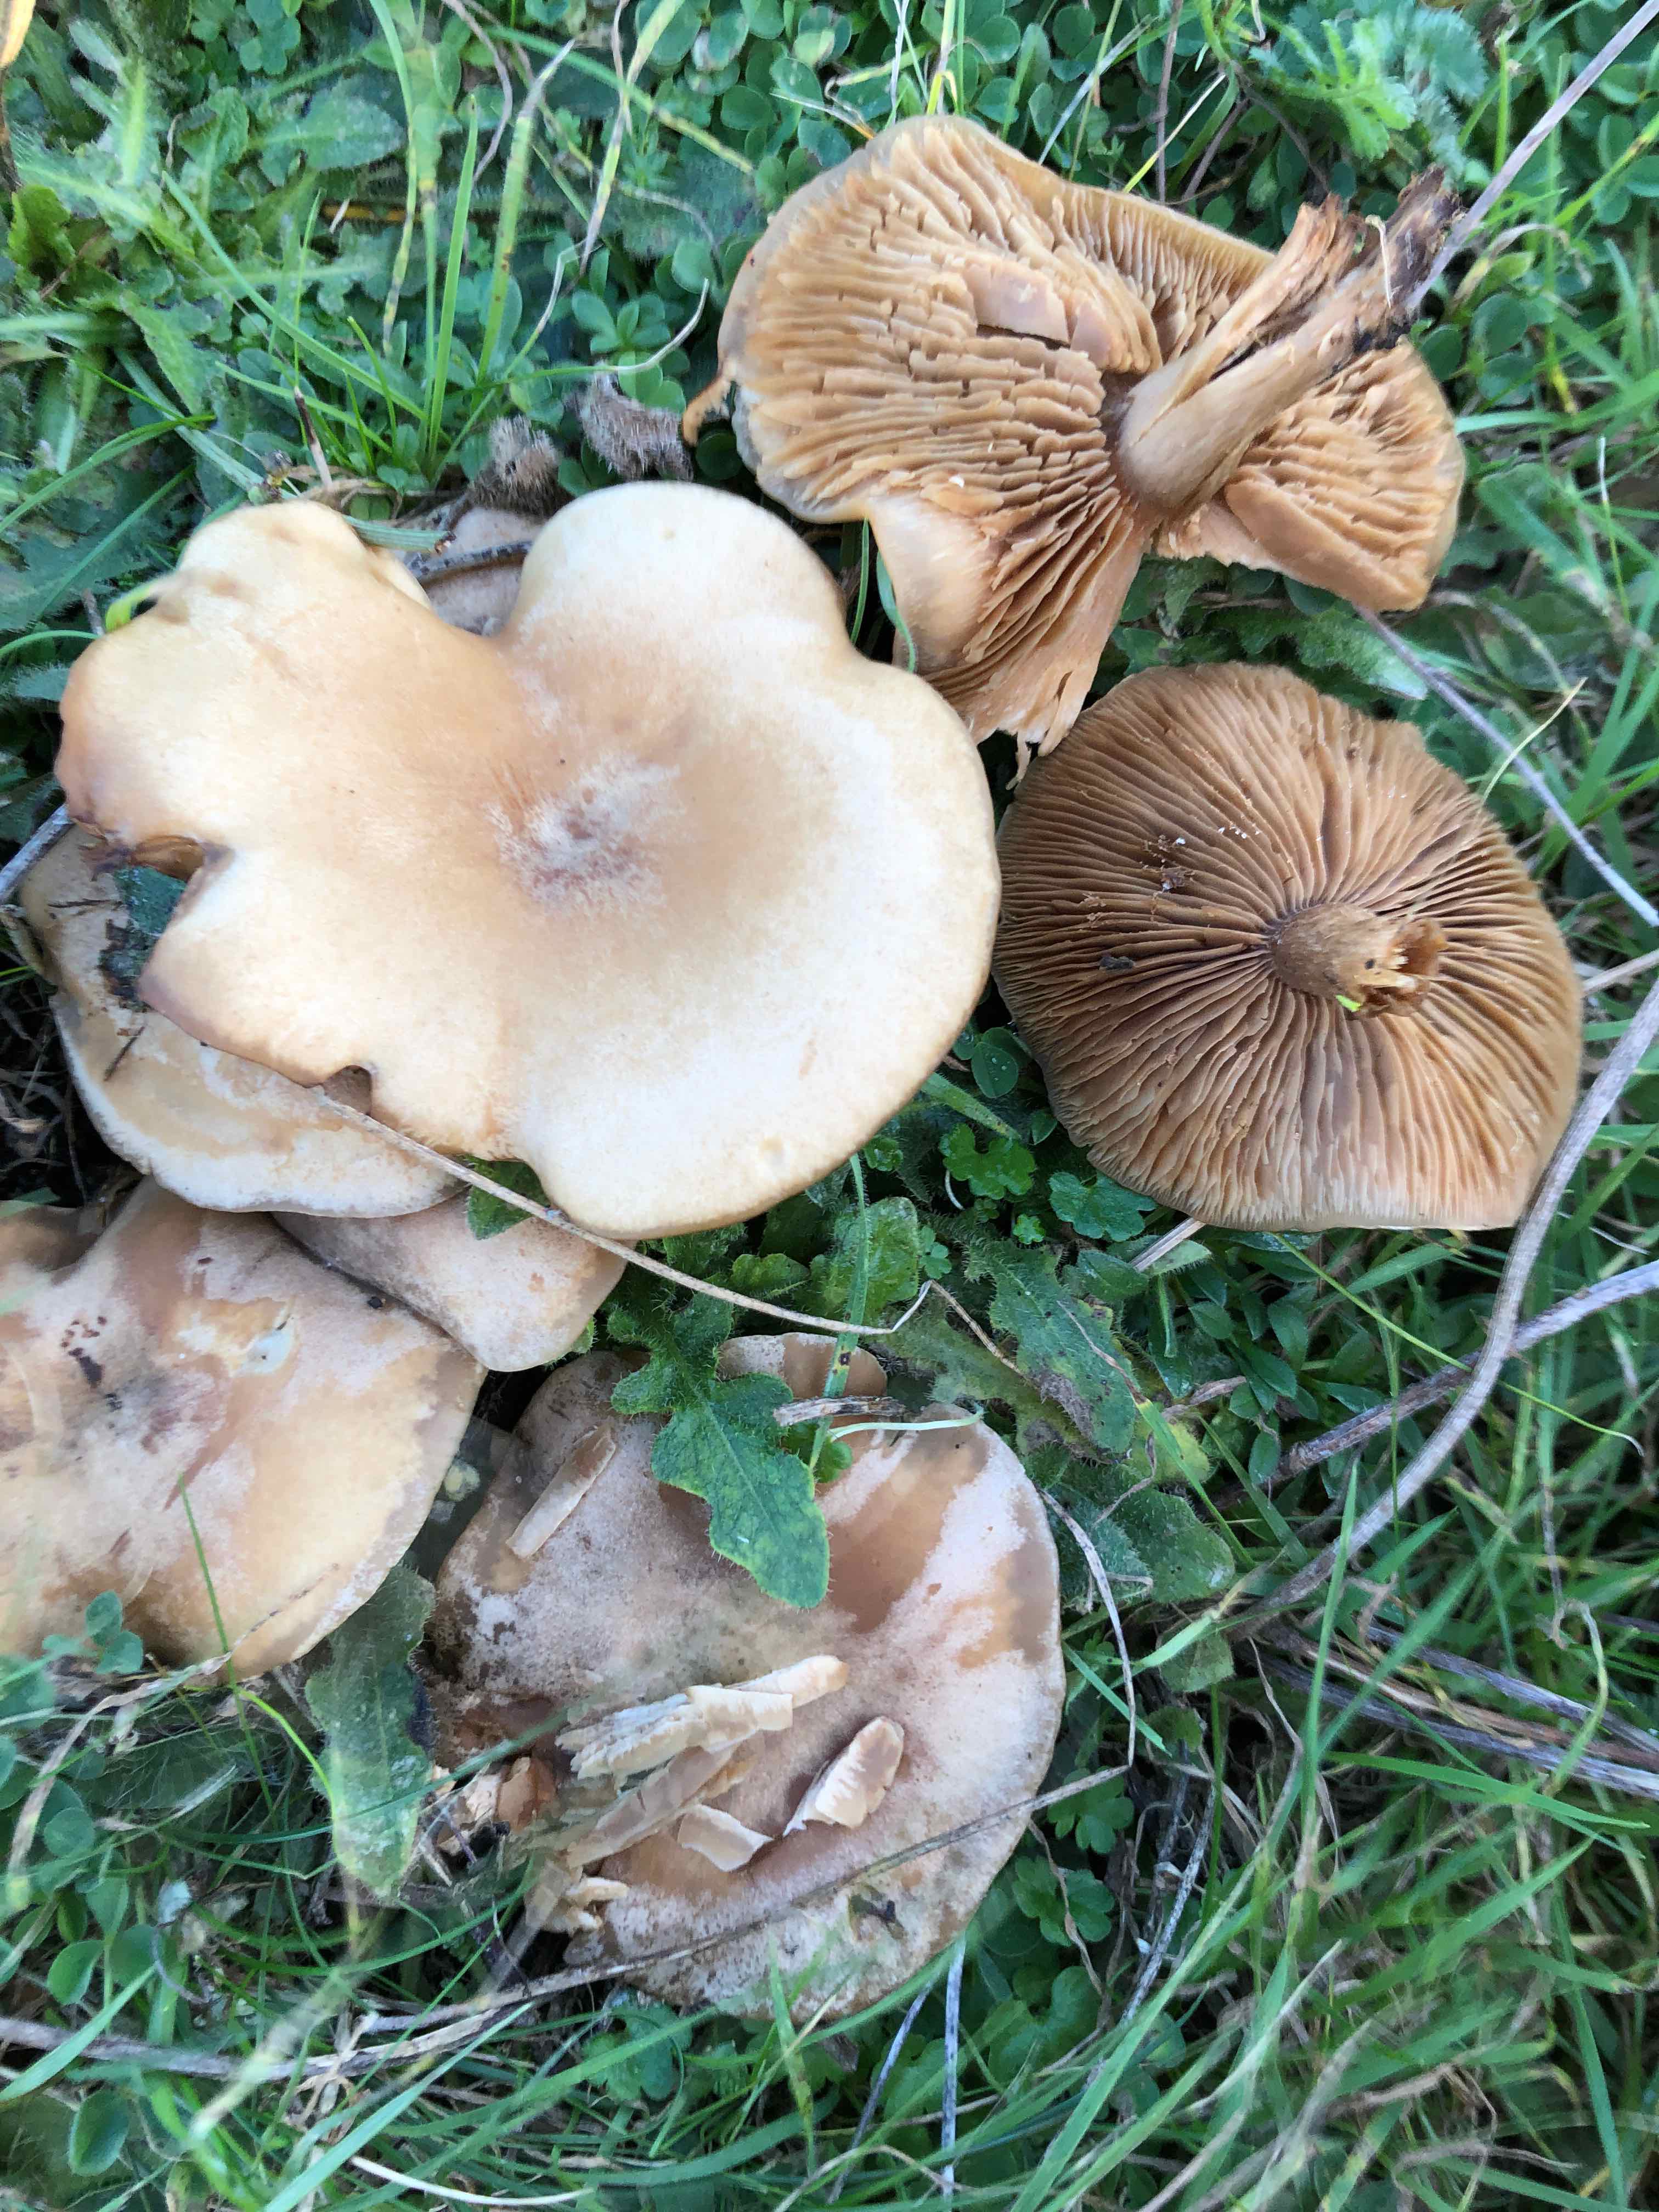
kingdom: Fungi
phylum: Basidiomycota
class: Agaricomycetes
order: Agaricales
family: Tricholomataceae
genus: Lepista
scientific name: Lepista panaeolus
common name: marmoreret hekseringshat
